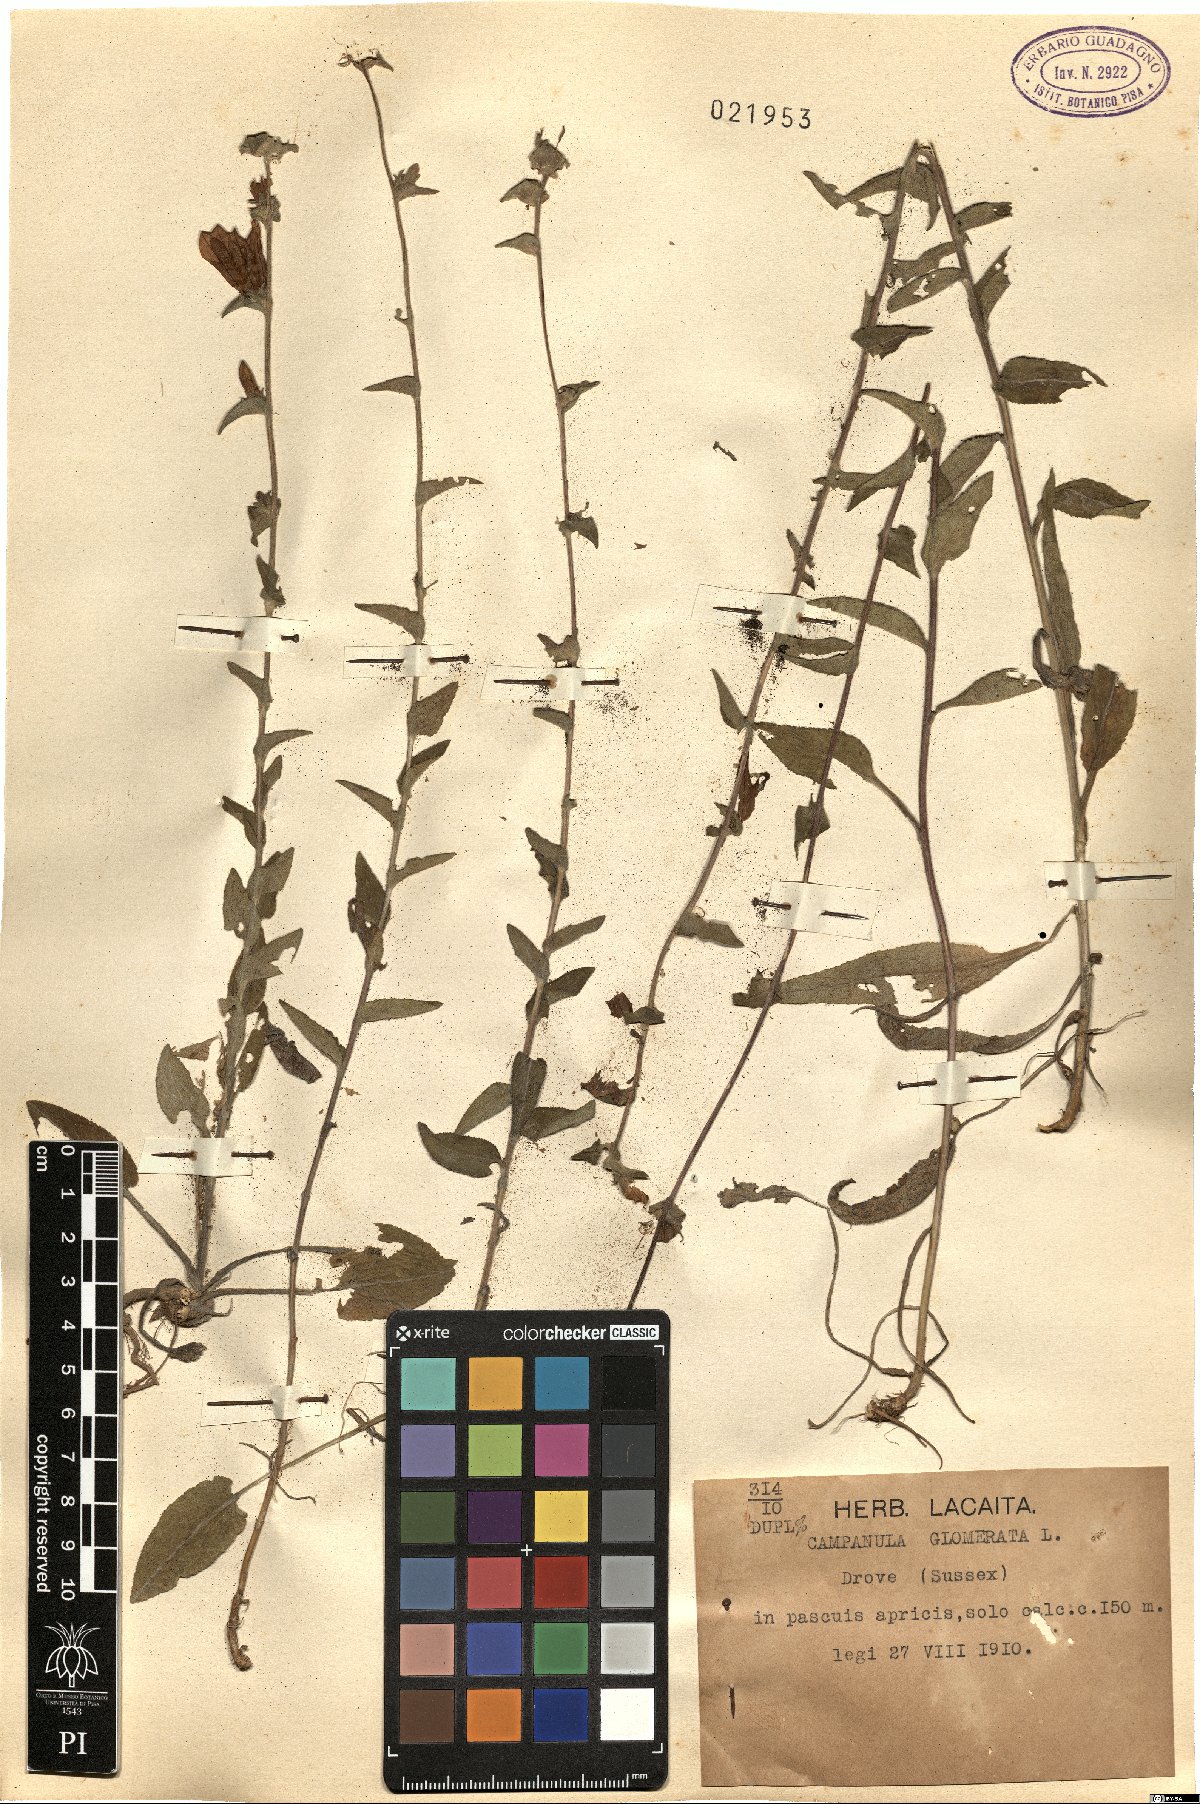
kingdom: Plantae
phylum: Tracheophyta
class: Magnoliopsida
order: Asterales
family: Campanulaceae
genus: Campanula
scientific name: Campanula glomerata
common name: Clustered bellflower
